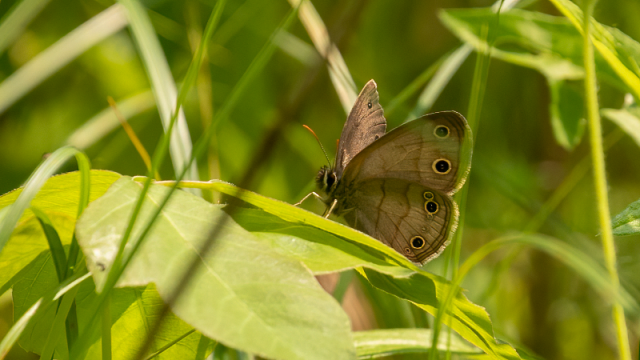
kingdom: Animalia
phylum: Arthropoda
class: Insecta
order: Lepidoptera
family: Nymphalidae
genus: Euptychia
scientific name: Euptychia cymela
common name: Little Wood Satyr
